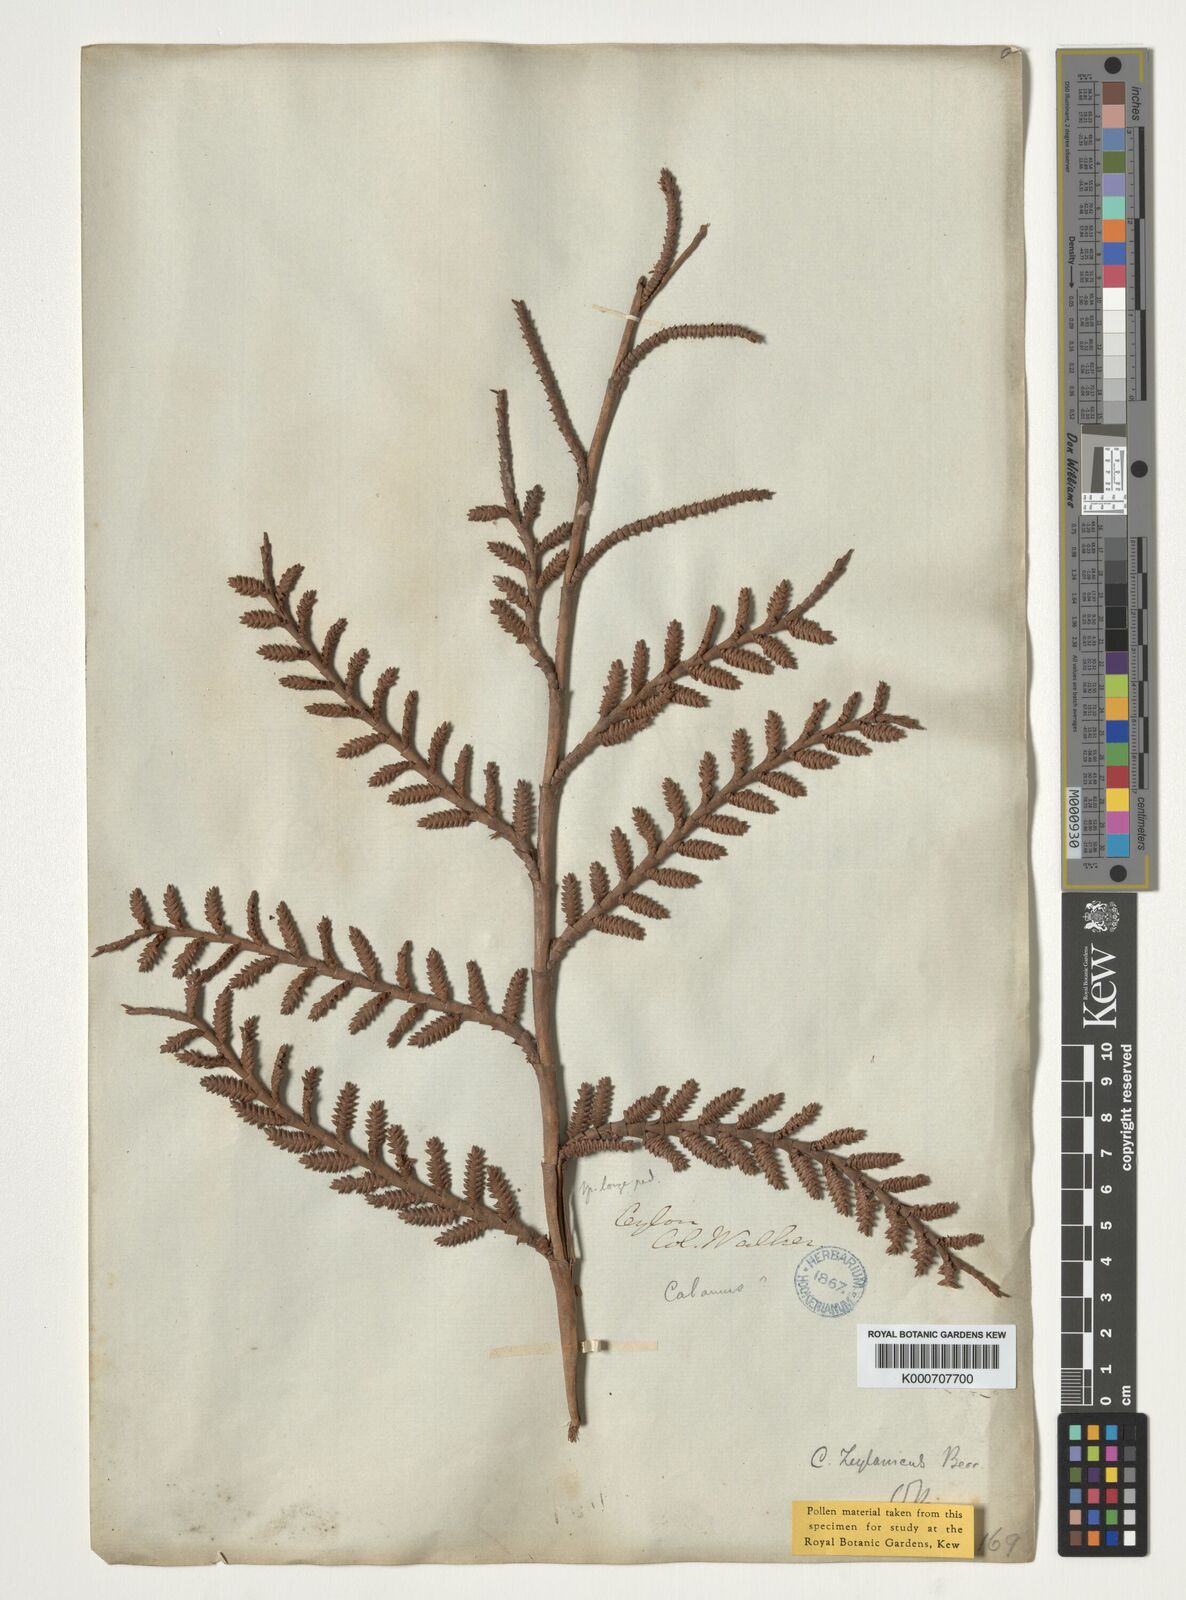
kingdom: Plantae
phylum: Tracheophyta
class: Liliopsida
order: Arecales
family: Arecaceae
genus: Calamus
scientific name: Calamus zeylanicus
